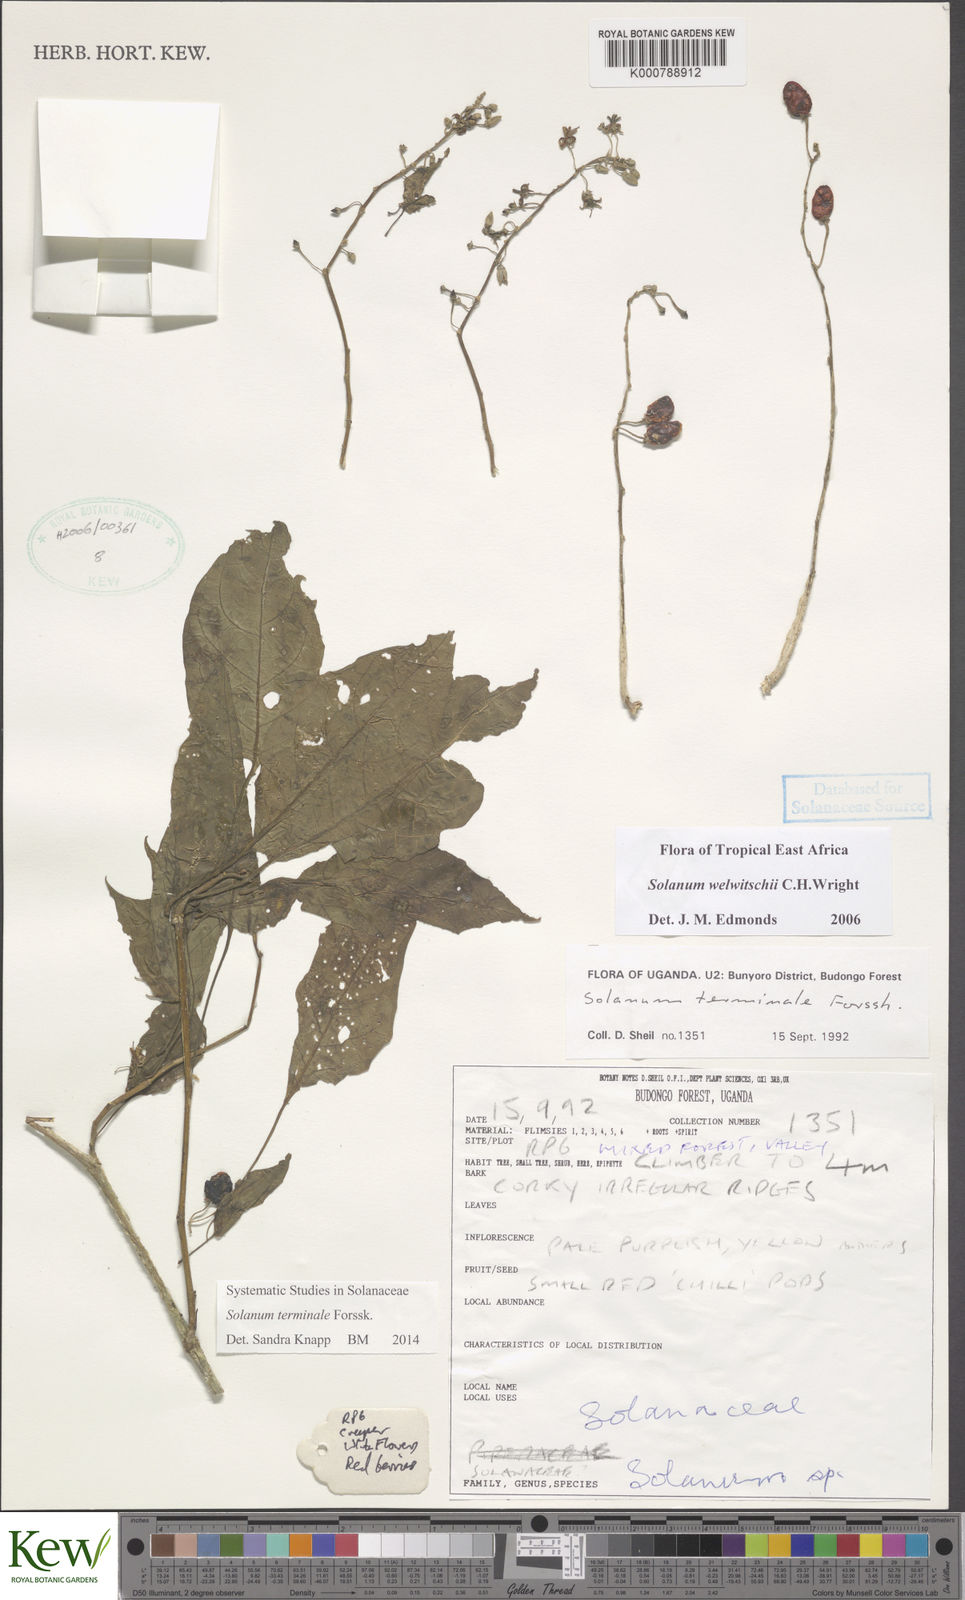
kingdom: Plantae
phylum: Tracheophyta
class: Magnoliopsida
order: Solanales
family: Solanaceae
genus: Solanum
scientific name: Solanum terminale
